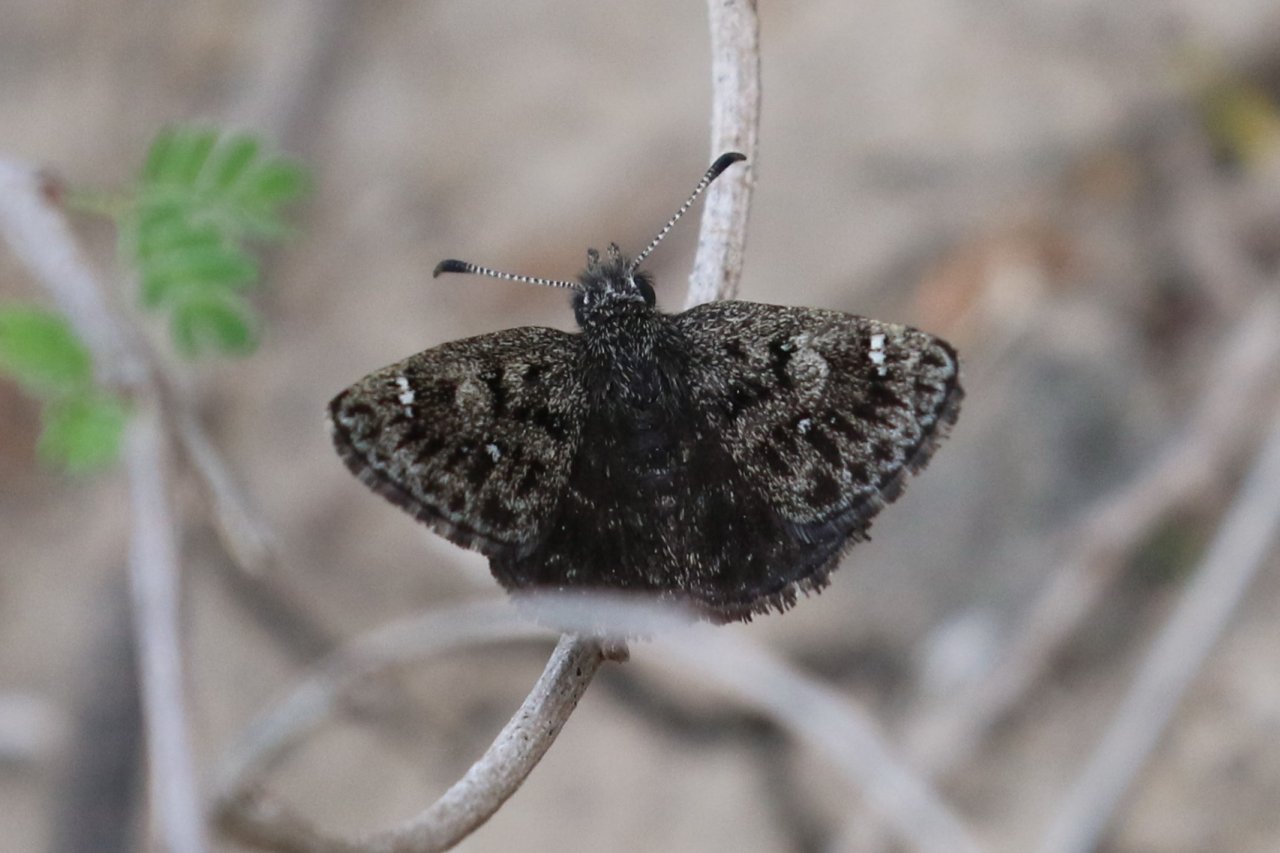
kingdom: Animalia
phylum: Arthropoda
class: Insecta
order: Lepidoptera
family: Hesperiidae
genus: Hesperopsis
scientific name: Hesperopsis alpheus
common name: Saltbush Sootywing
